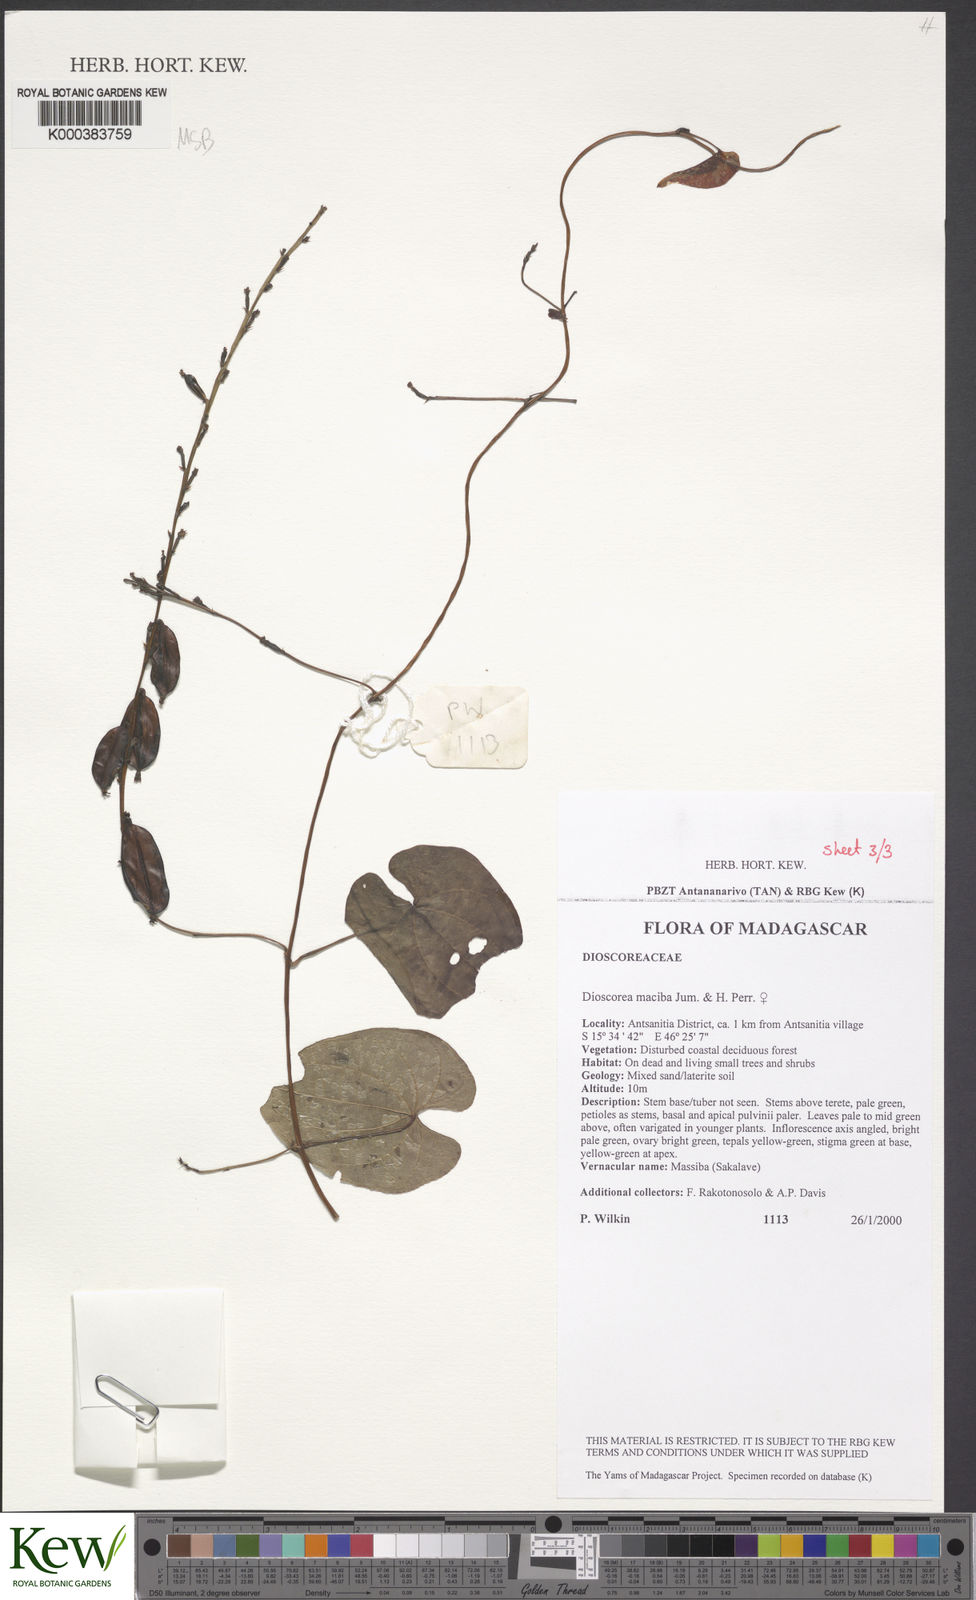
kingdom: Plantae
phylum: Tracheophyta
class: Liliopsida
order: Dioscoreales
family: Dioscoreaceae
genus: Dioscorea
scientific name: Dioscorea
